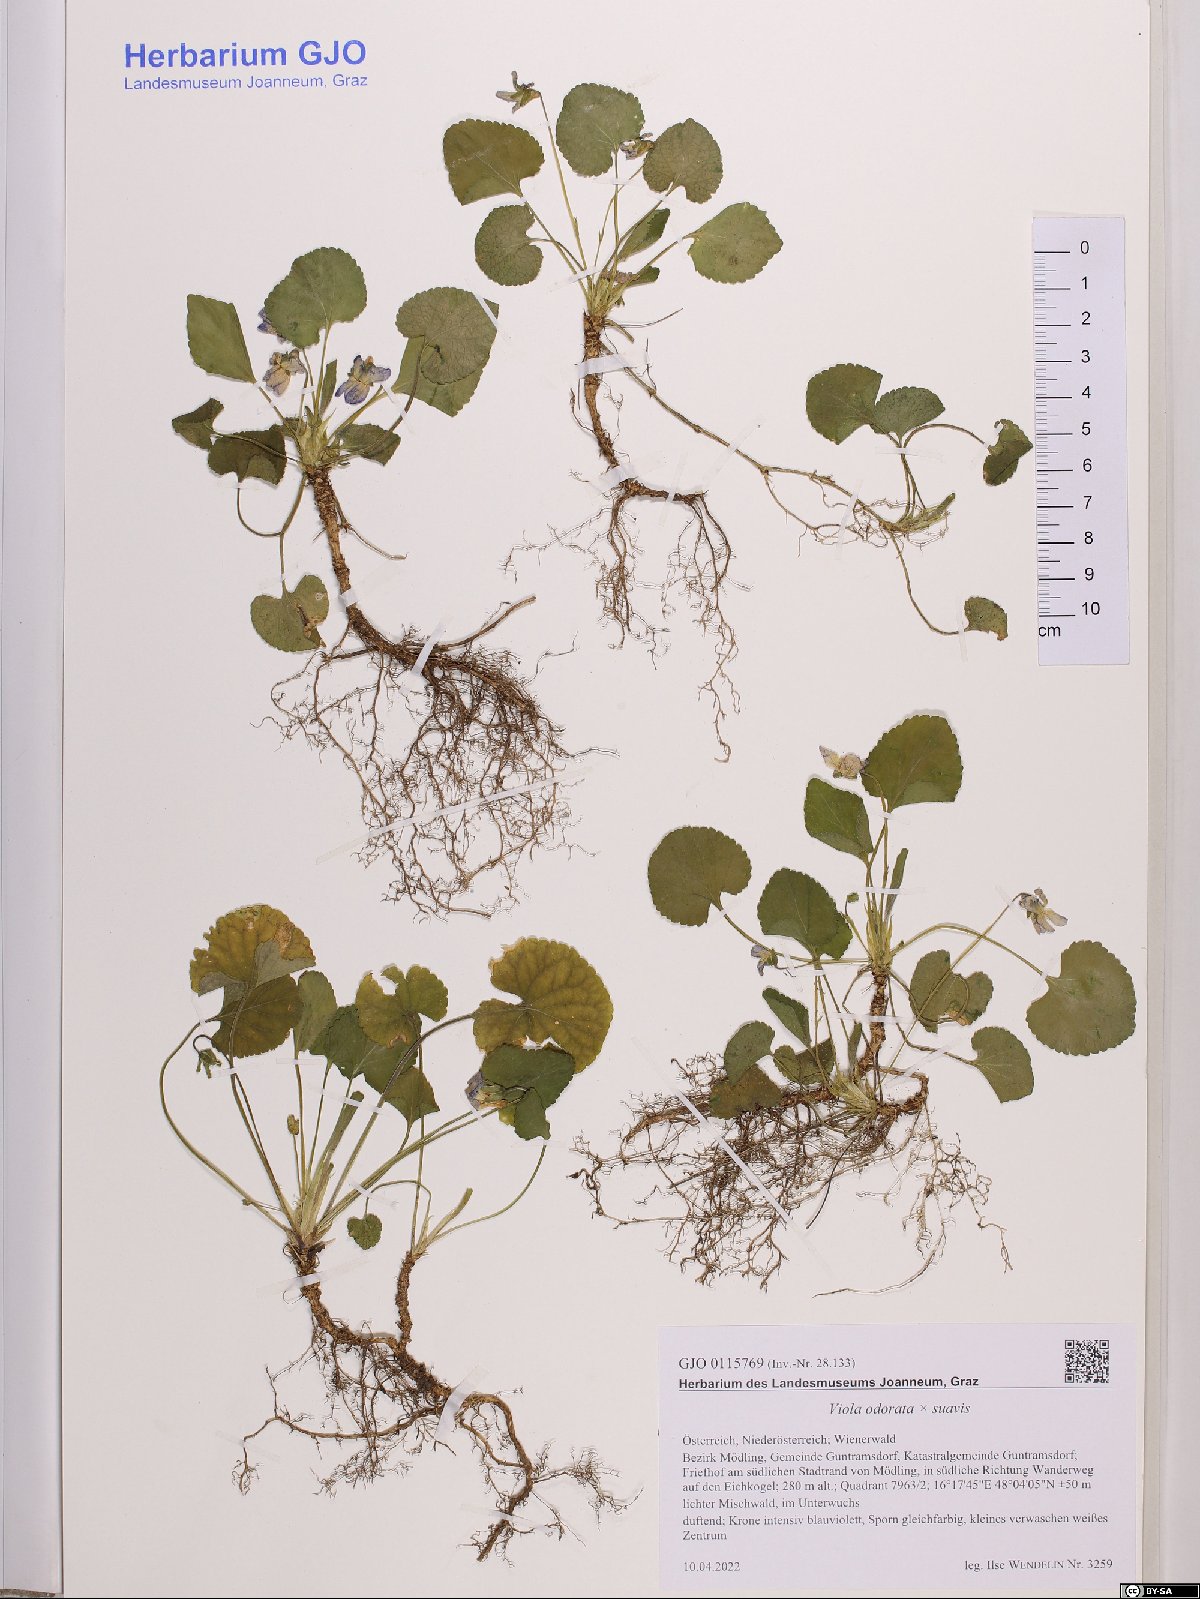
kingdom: Plantae
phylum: Tracheophyta
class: Magnoliopsida
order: Malpighiales
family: Violaceae
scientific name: Violaceae
